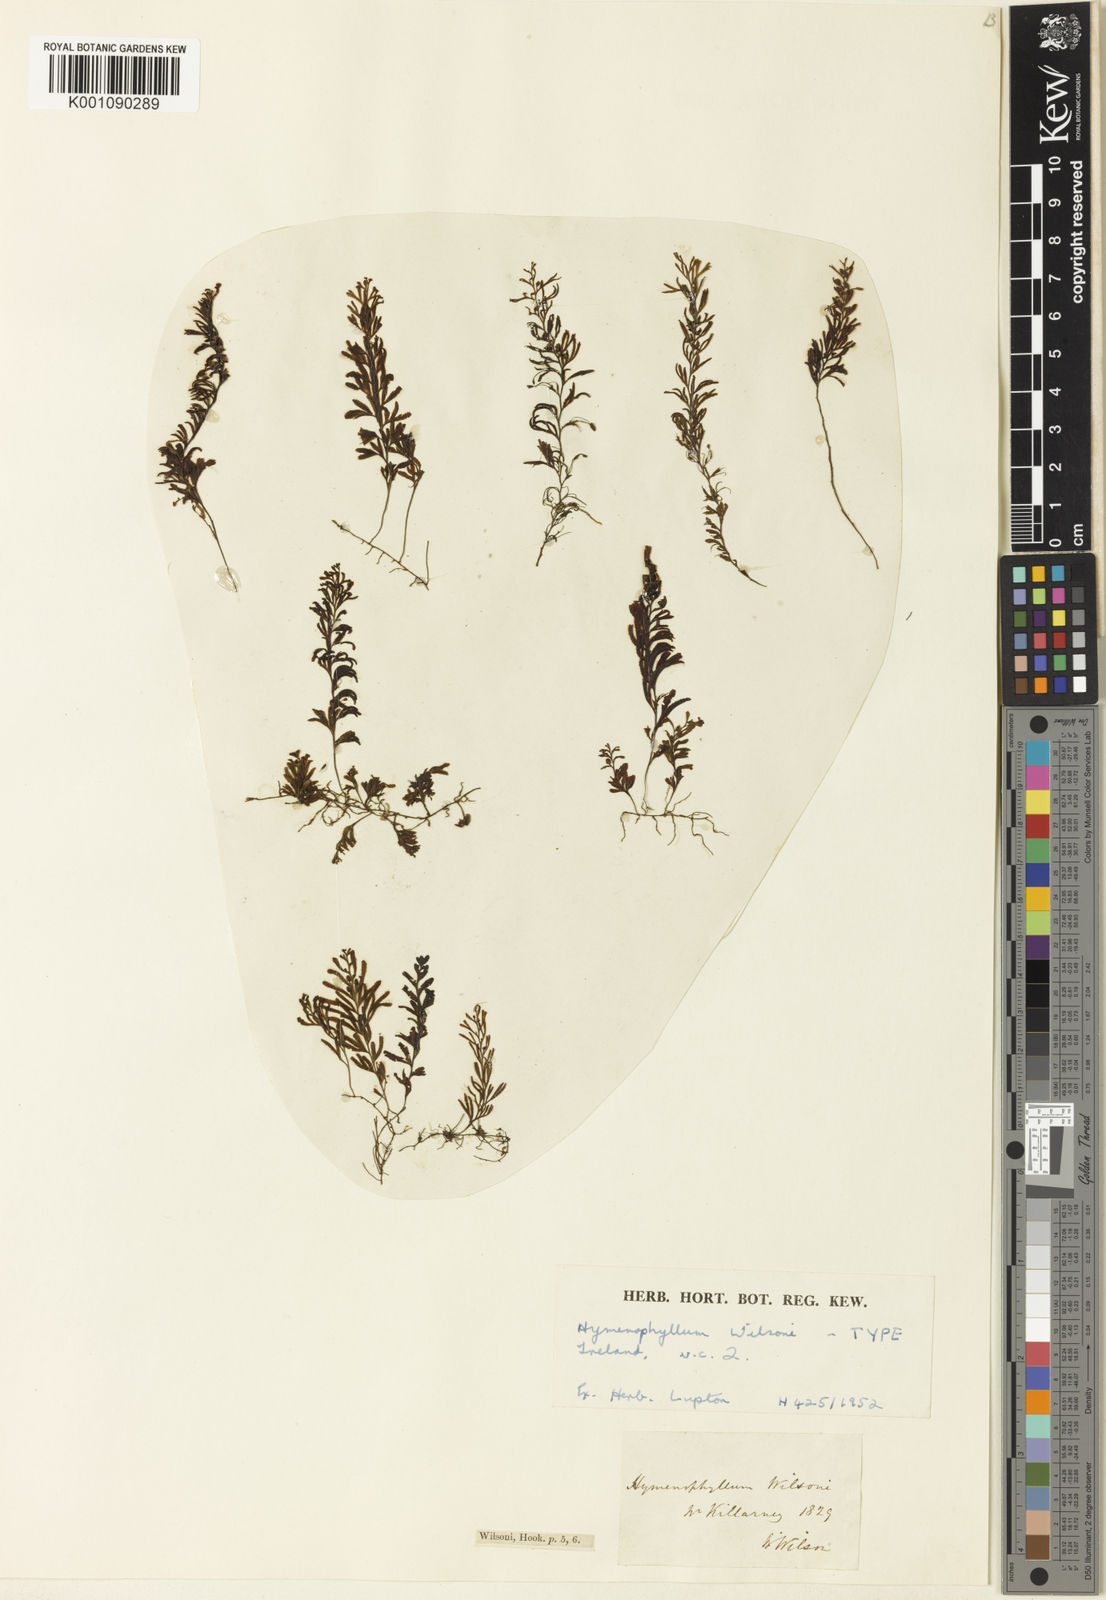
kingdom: Plantae
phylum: Tracheophyta
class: Polypodiopsida
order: Hymenophyllales
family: Hymenophyllaceae
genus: Hymenophyllum
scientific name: Hymenophyllum wilsonii
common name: Wilson's filmy fern
